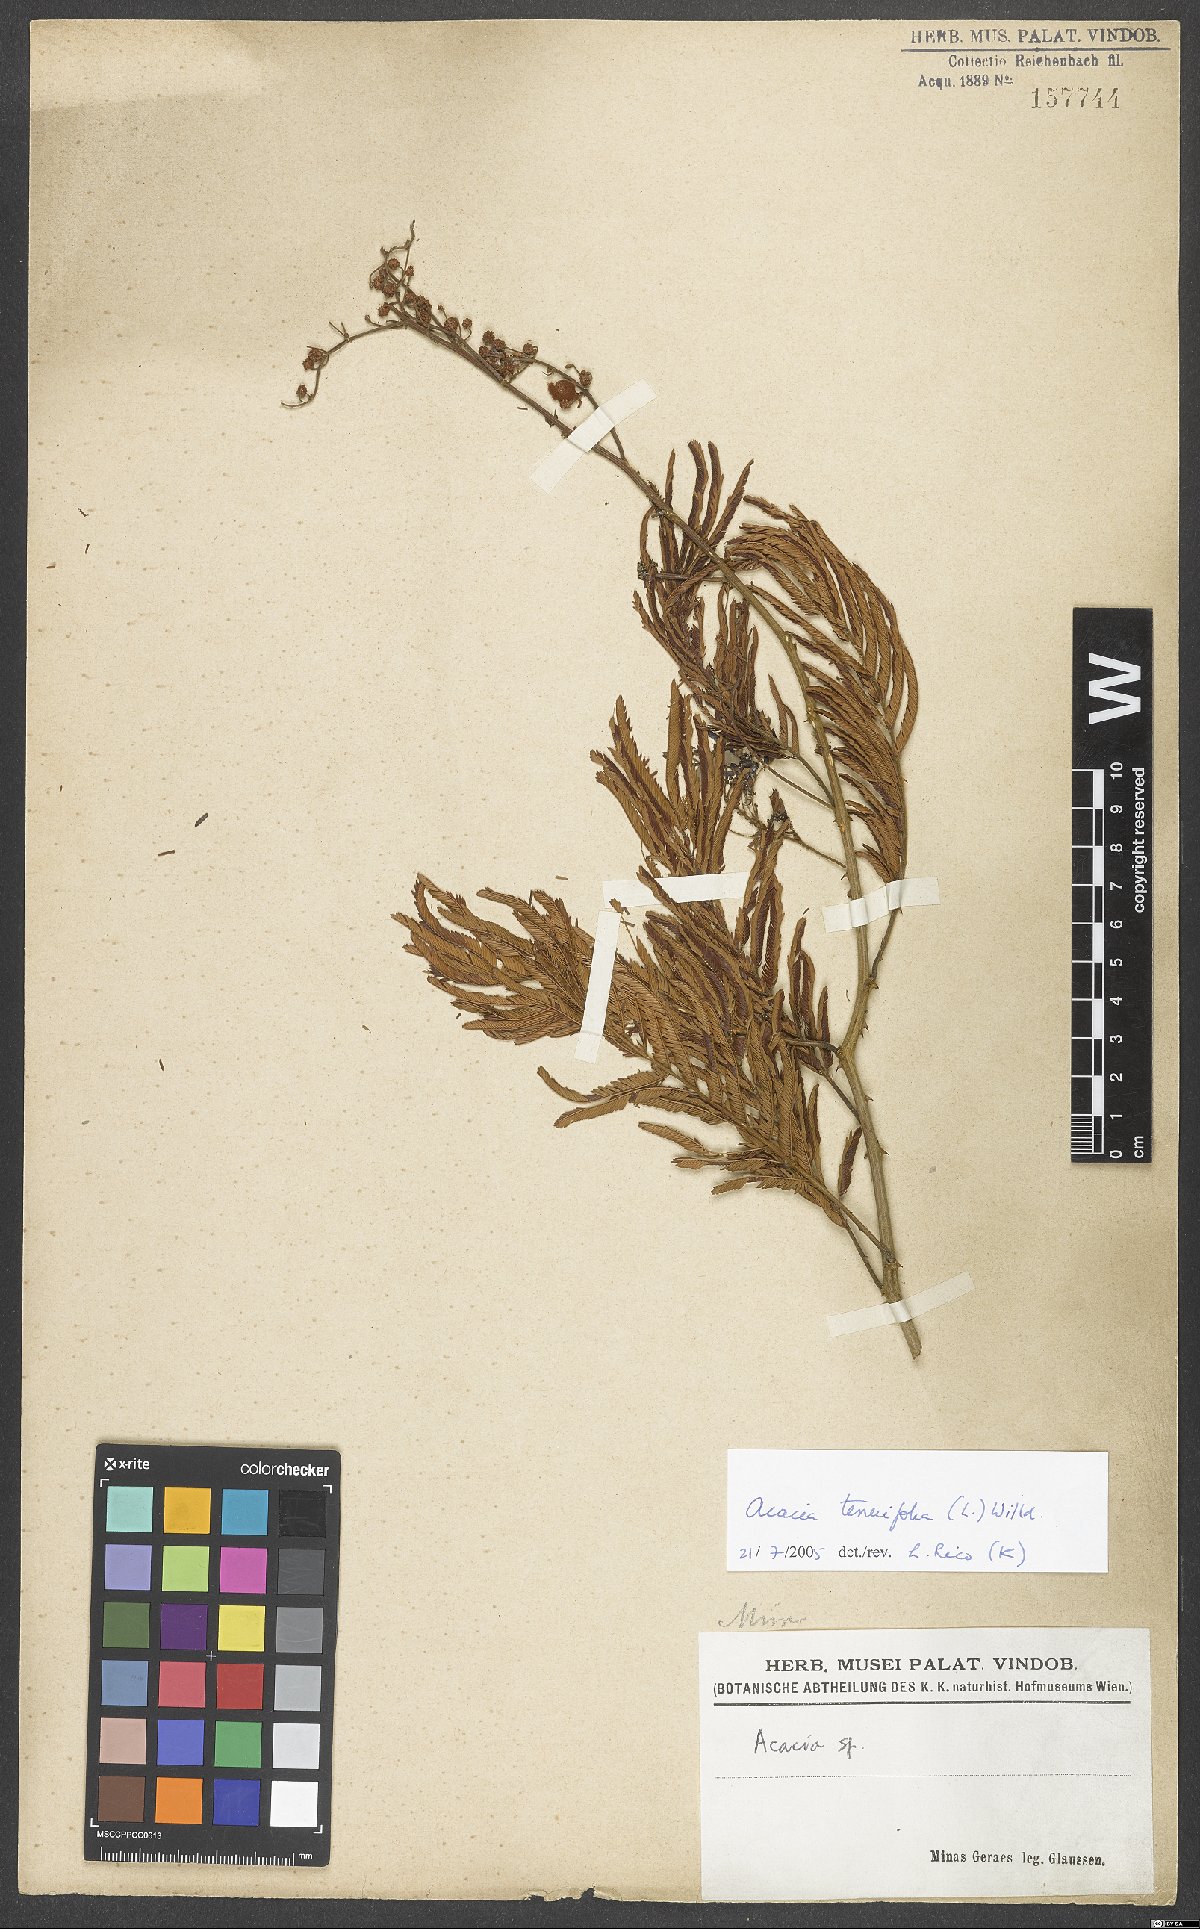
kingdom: Plantae
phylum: Tracheophyta
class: Magnoliopsida
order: Fabales
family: Fabaceae
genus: Senegalia
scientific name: Senegalia tenuifolia
